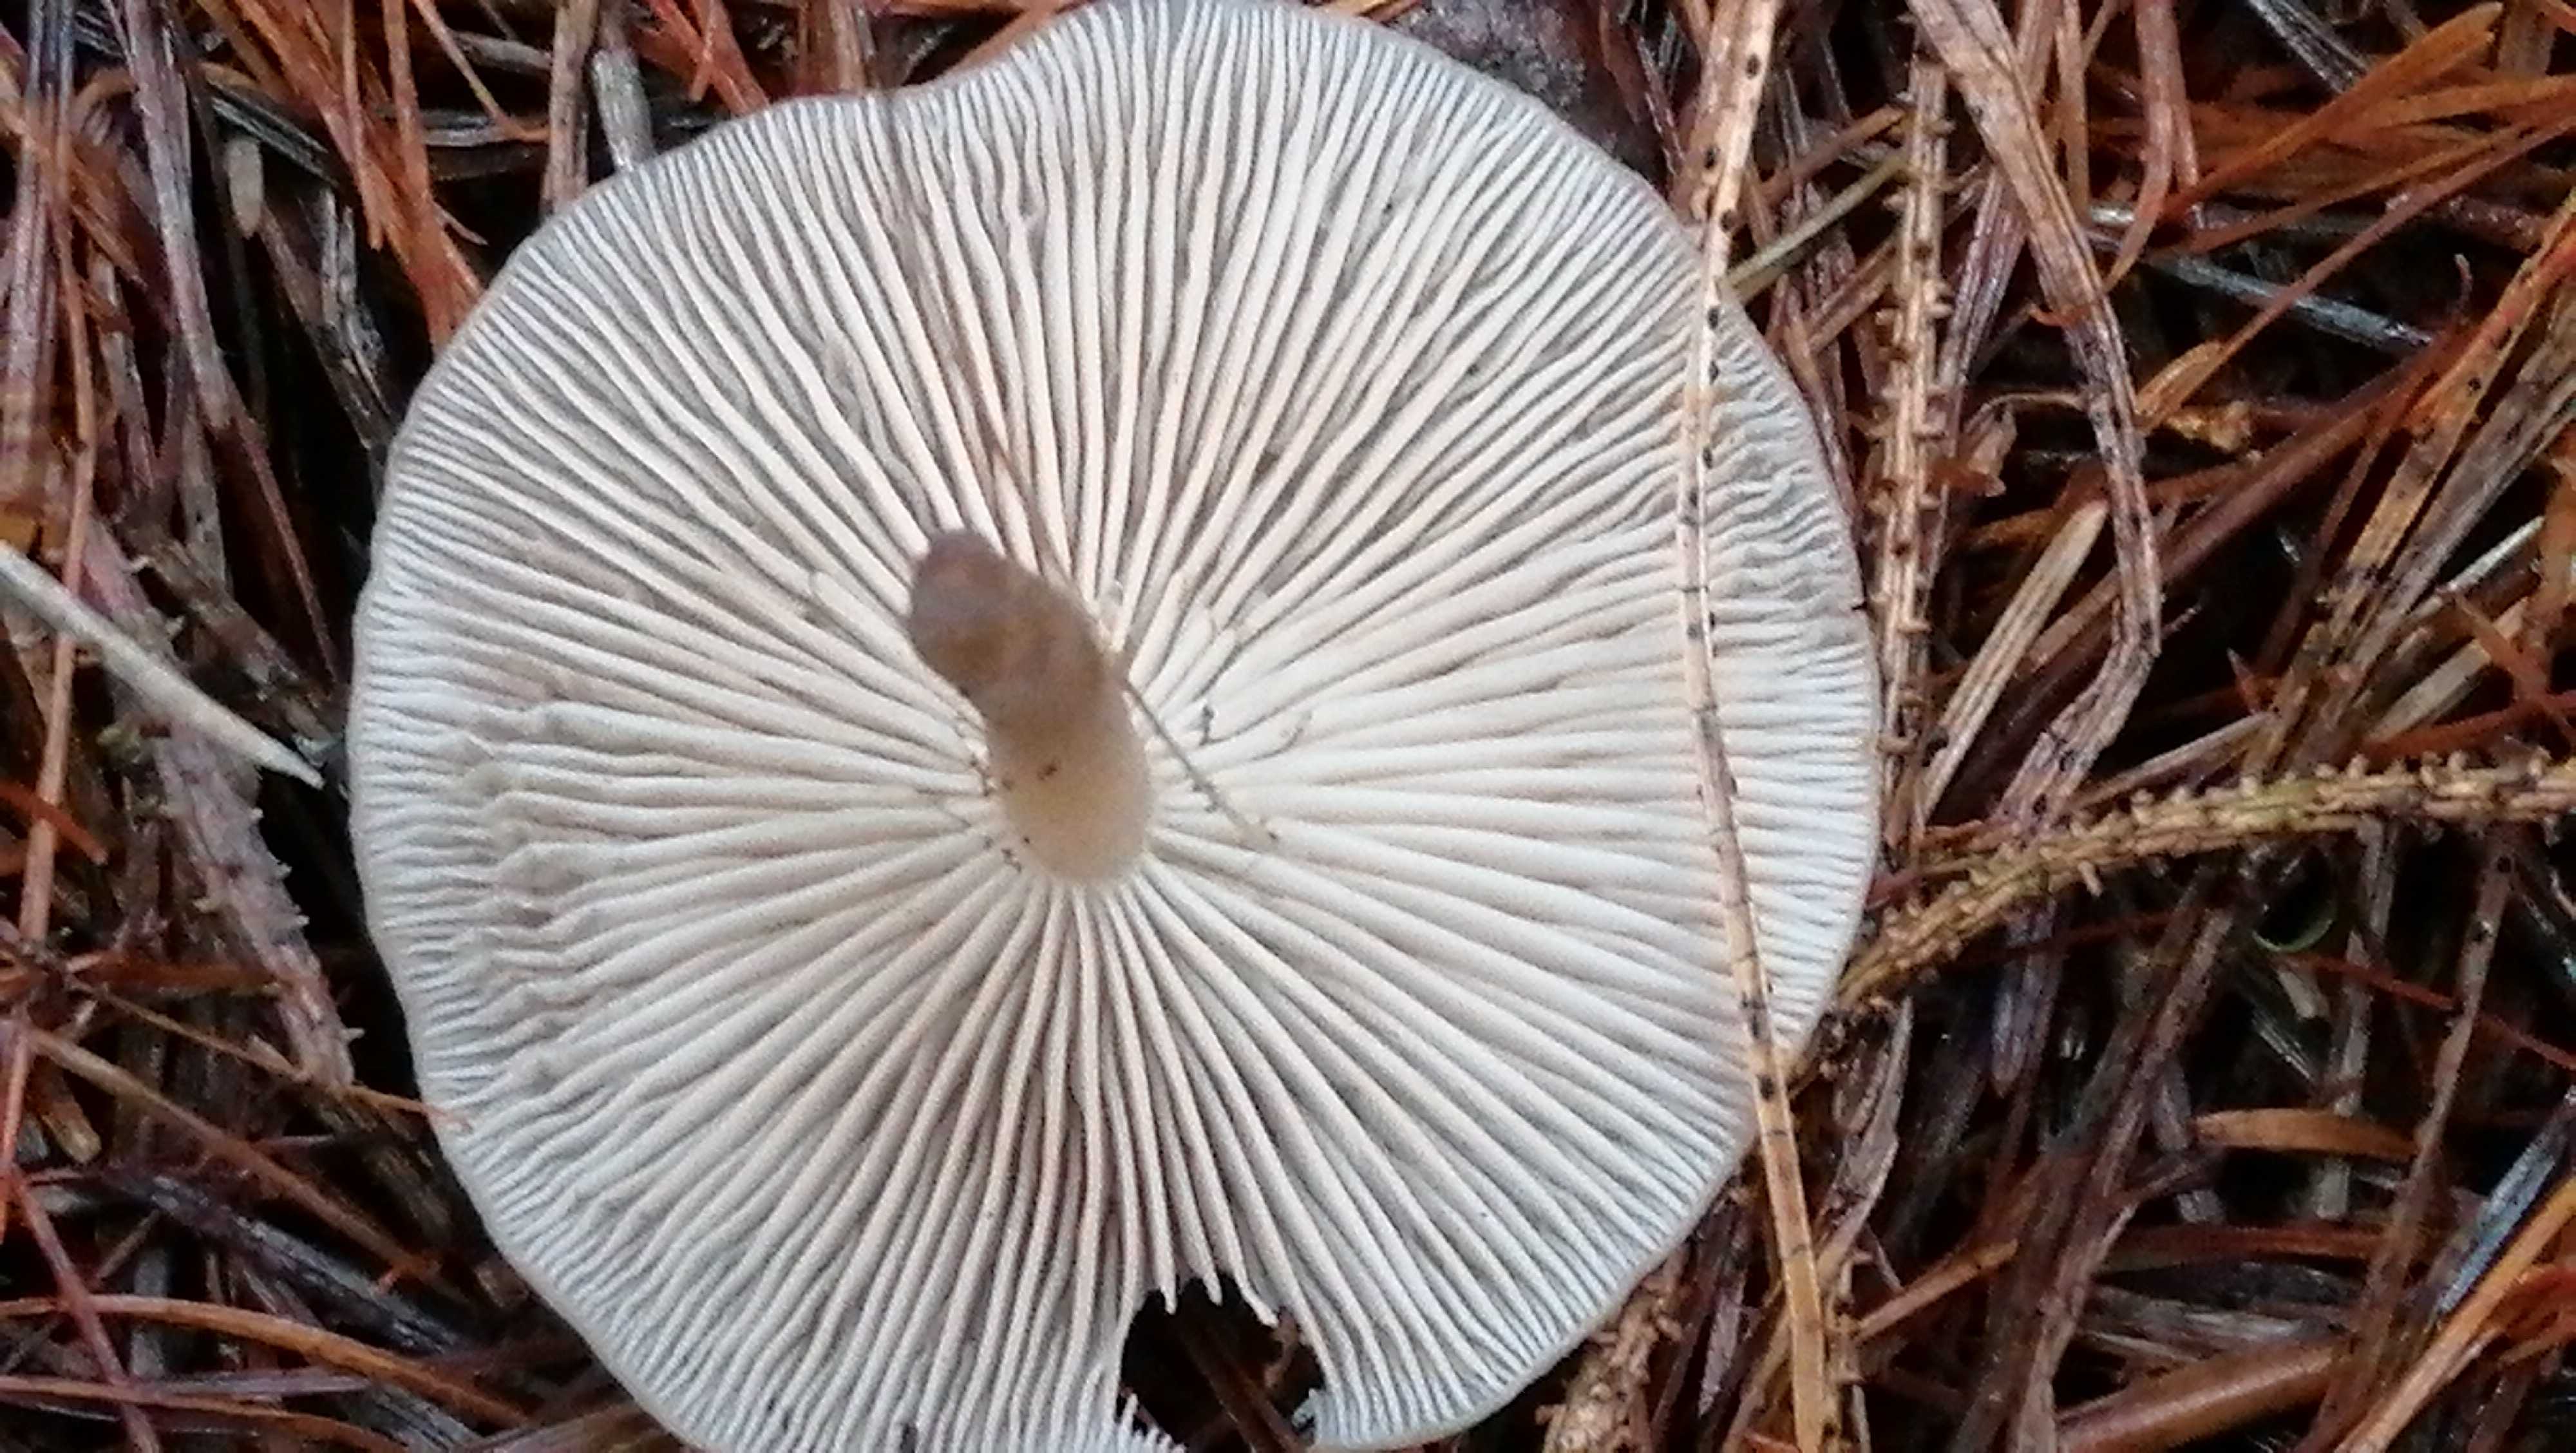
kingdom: Fungi
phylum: Basidiomycota
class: Agaricomycetes
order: Agaricales
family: Tricholomataceae
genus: Clitocybe
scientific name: Clitocybe
